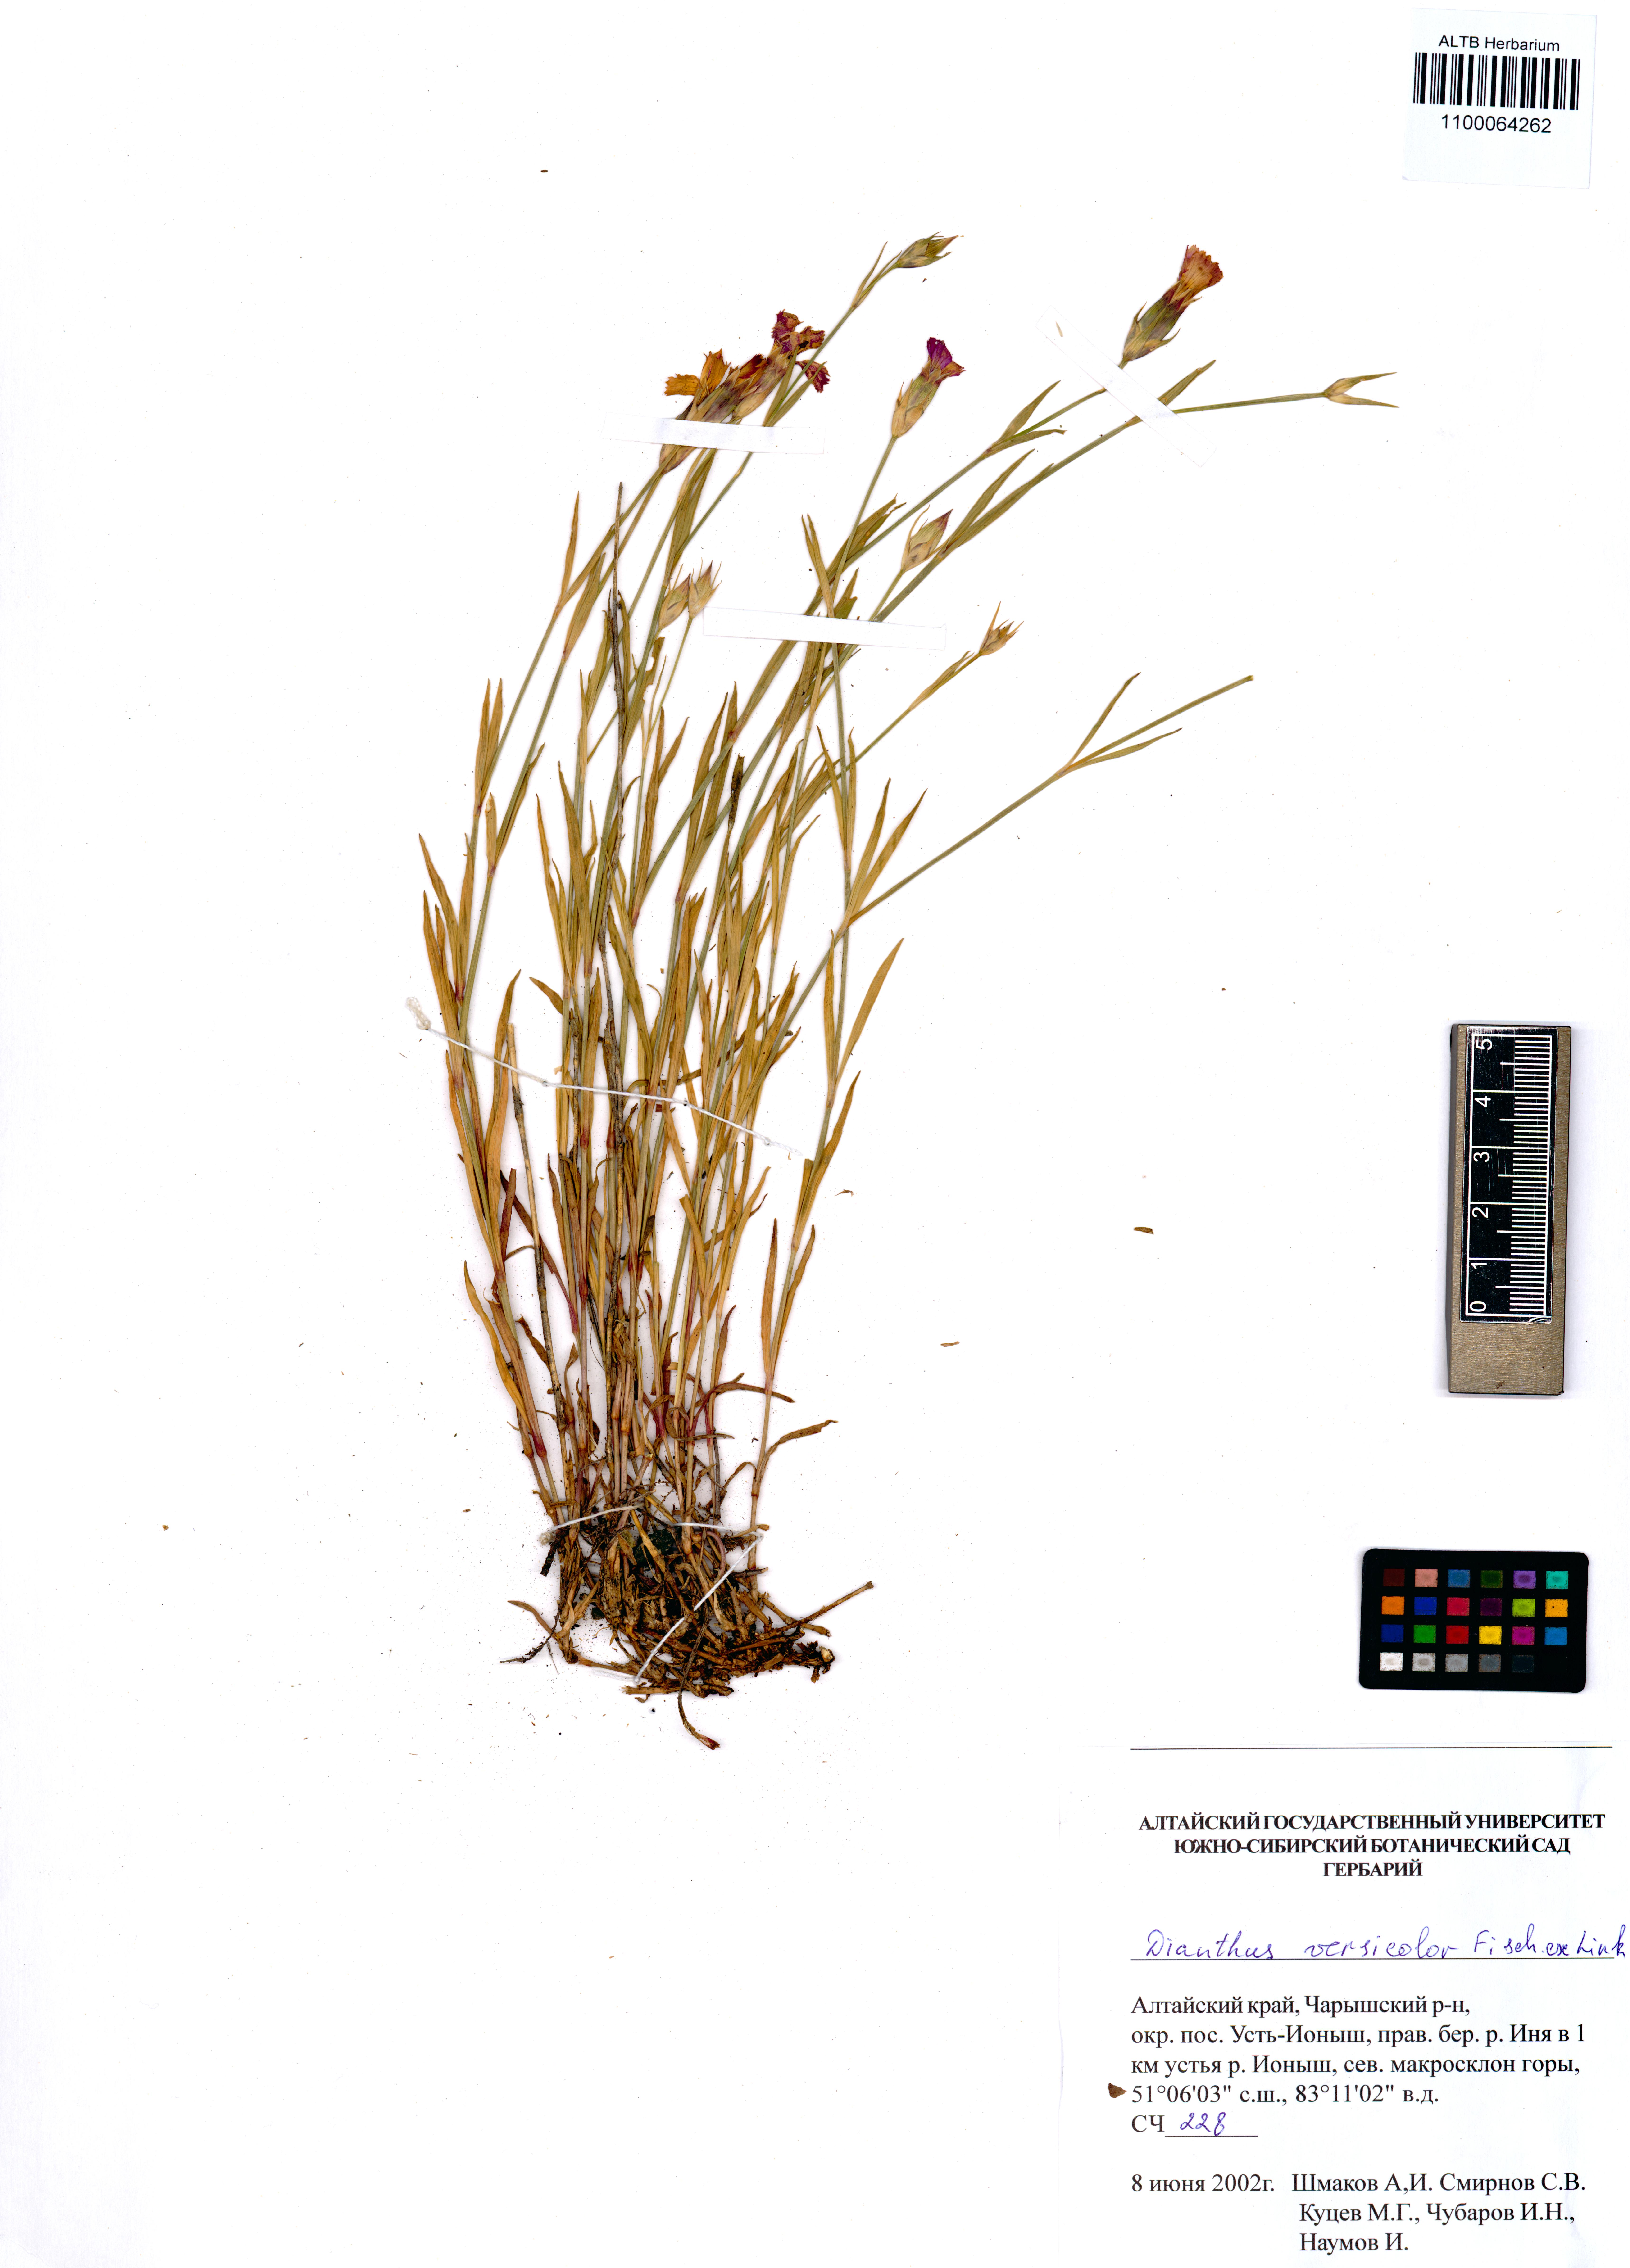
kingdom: Plantae
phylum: Tracheophyta
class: Magnoliopsida
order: Caryophyllales
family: Caryophyllaceae
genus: Dianthus
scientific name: Dianthus chinensis
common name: Rainbow pink
